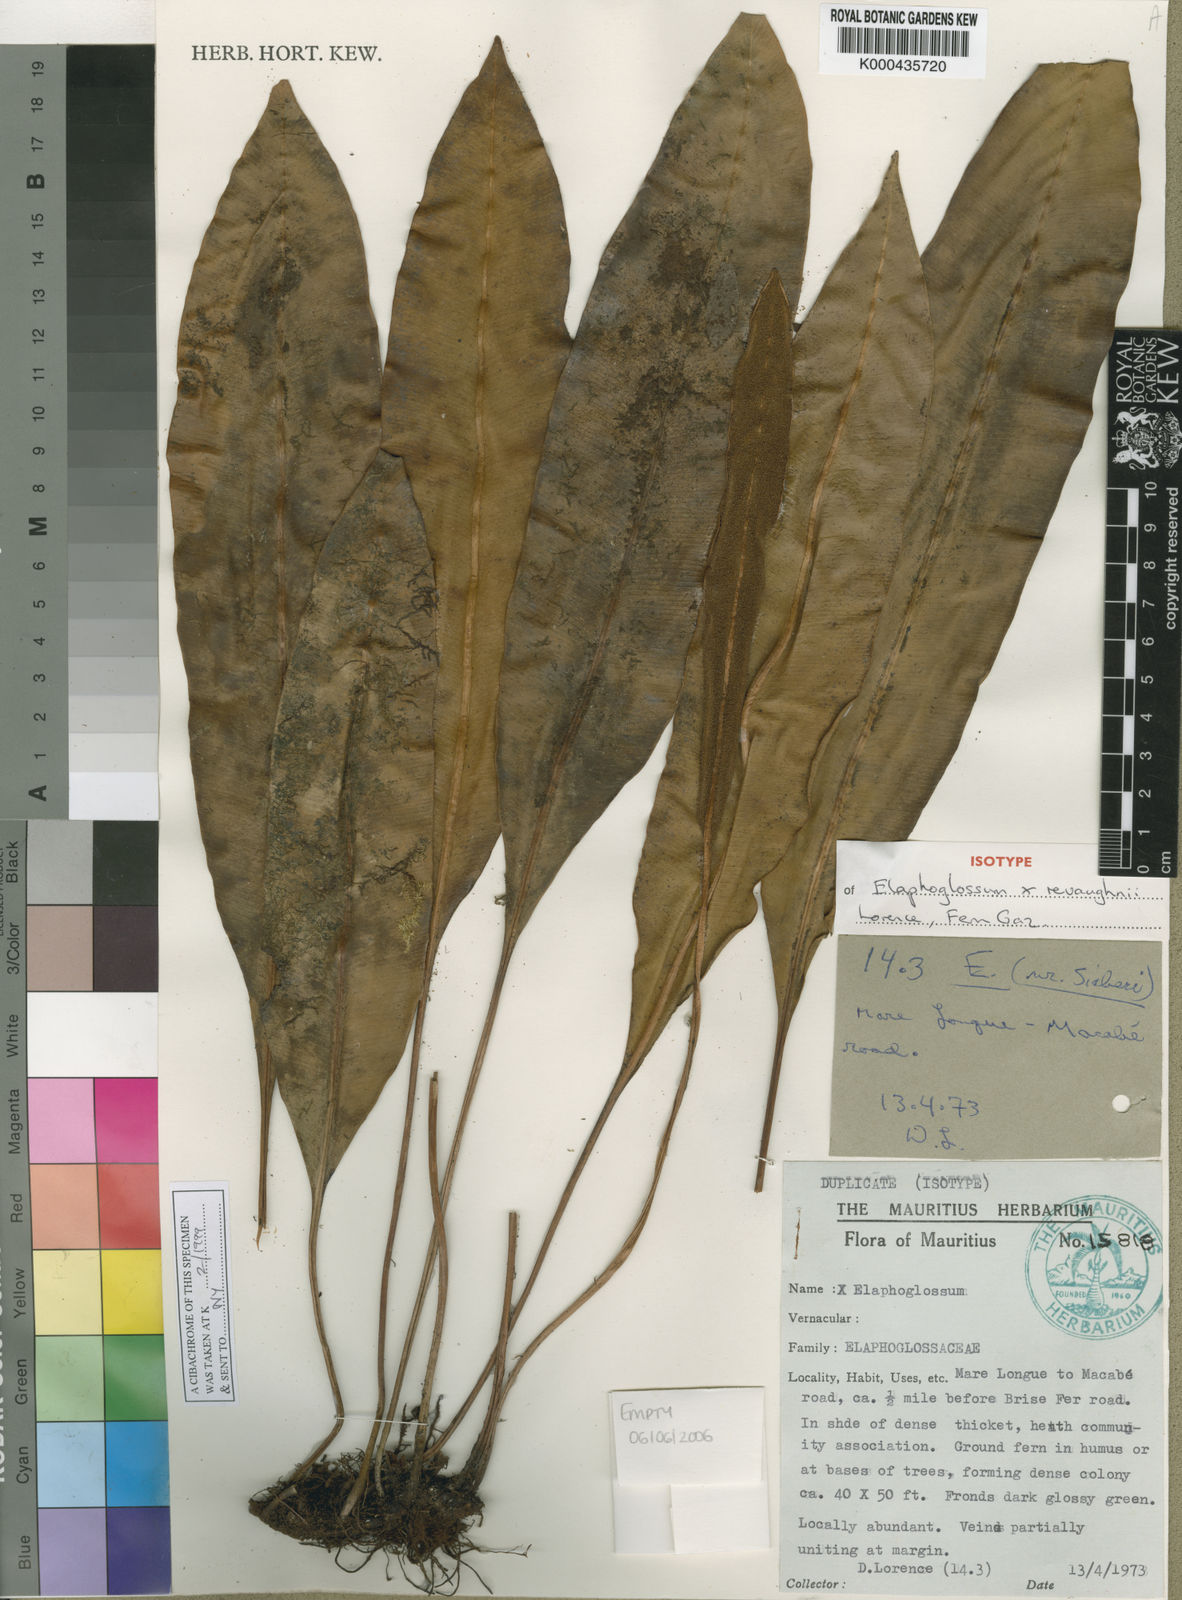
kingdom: Plantae
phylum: Tracheophyta
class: Polypodiopsida
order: Polypodiales
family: Dryopteridaceae
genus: Elaphoglossum
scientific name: Elaphoglossum revaughanii
